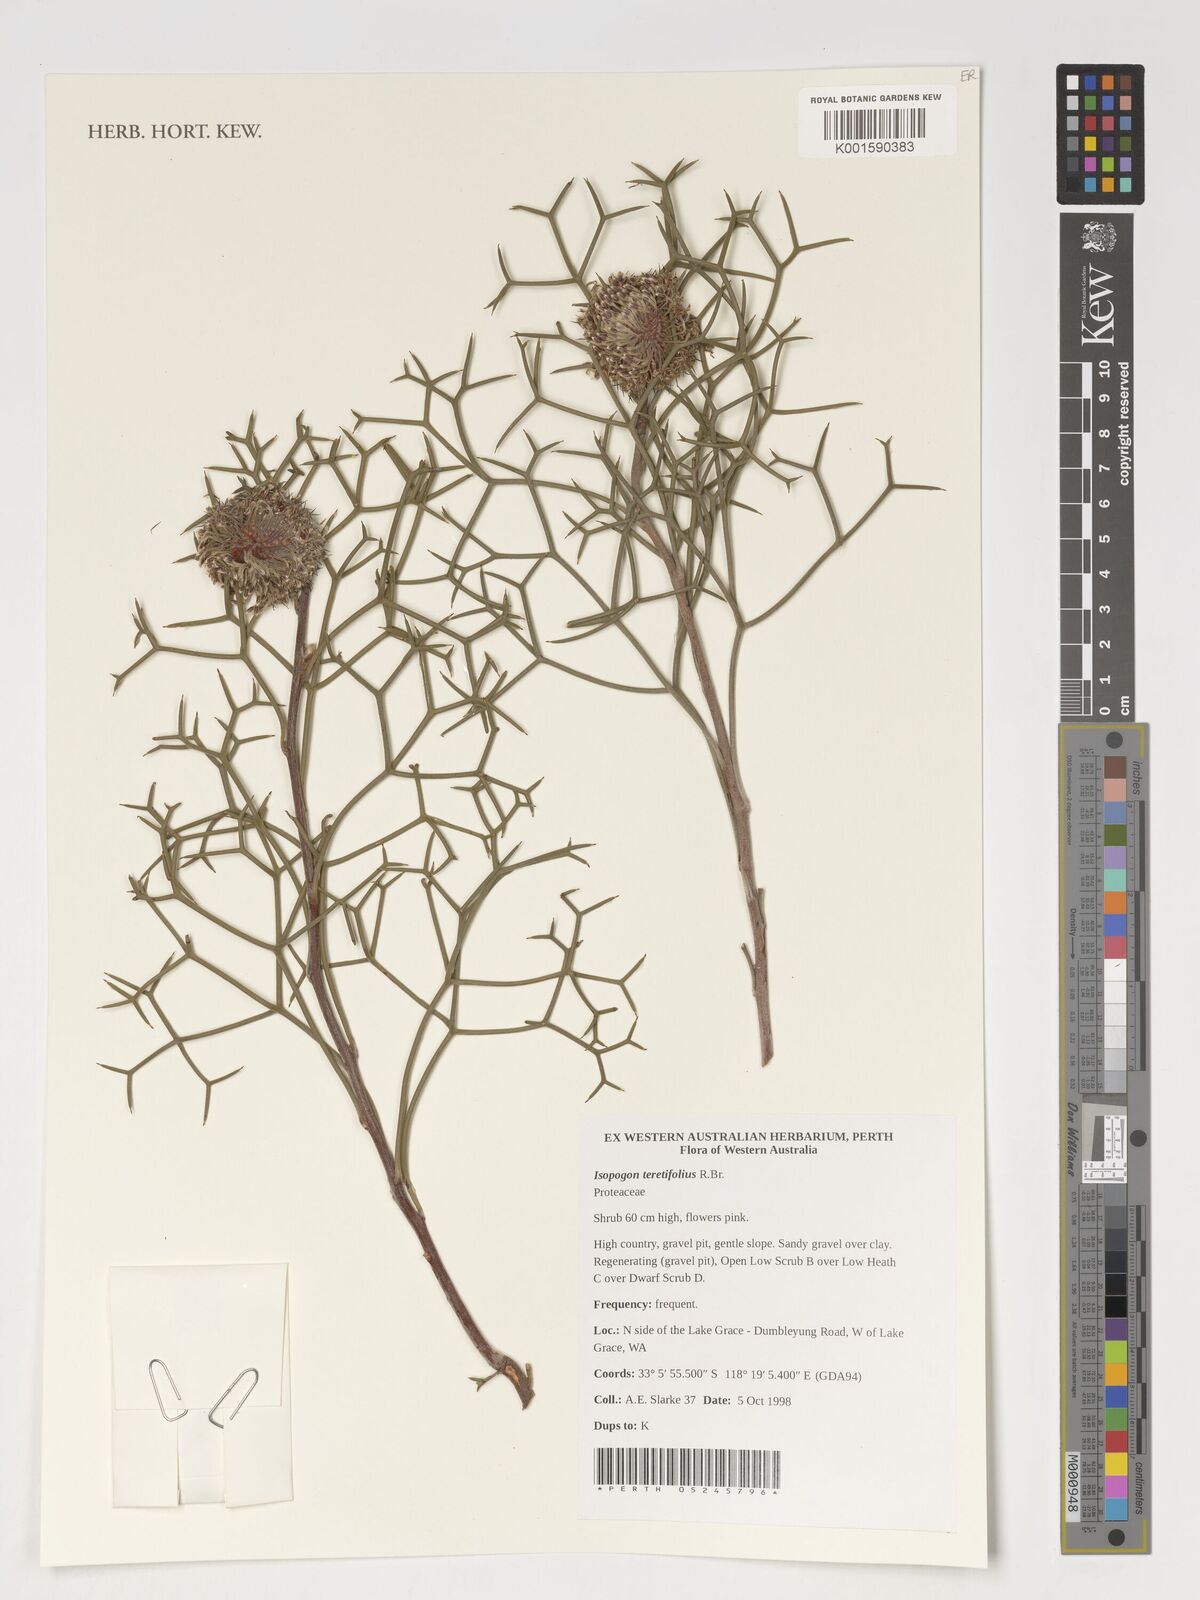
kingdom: Plantae
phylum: Tracheophyta
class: Magnoliopsida
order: Proteales
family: Proteaceae
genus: Isopogon
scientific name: Isopogon teretifolius
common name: Nodding coneflower
